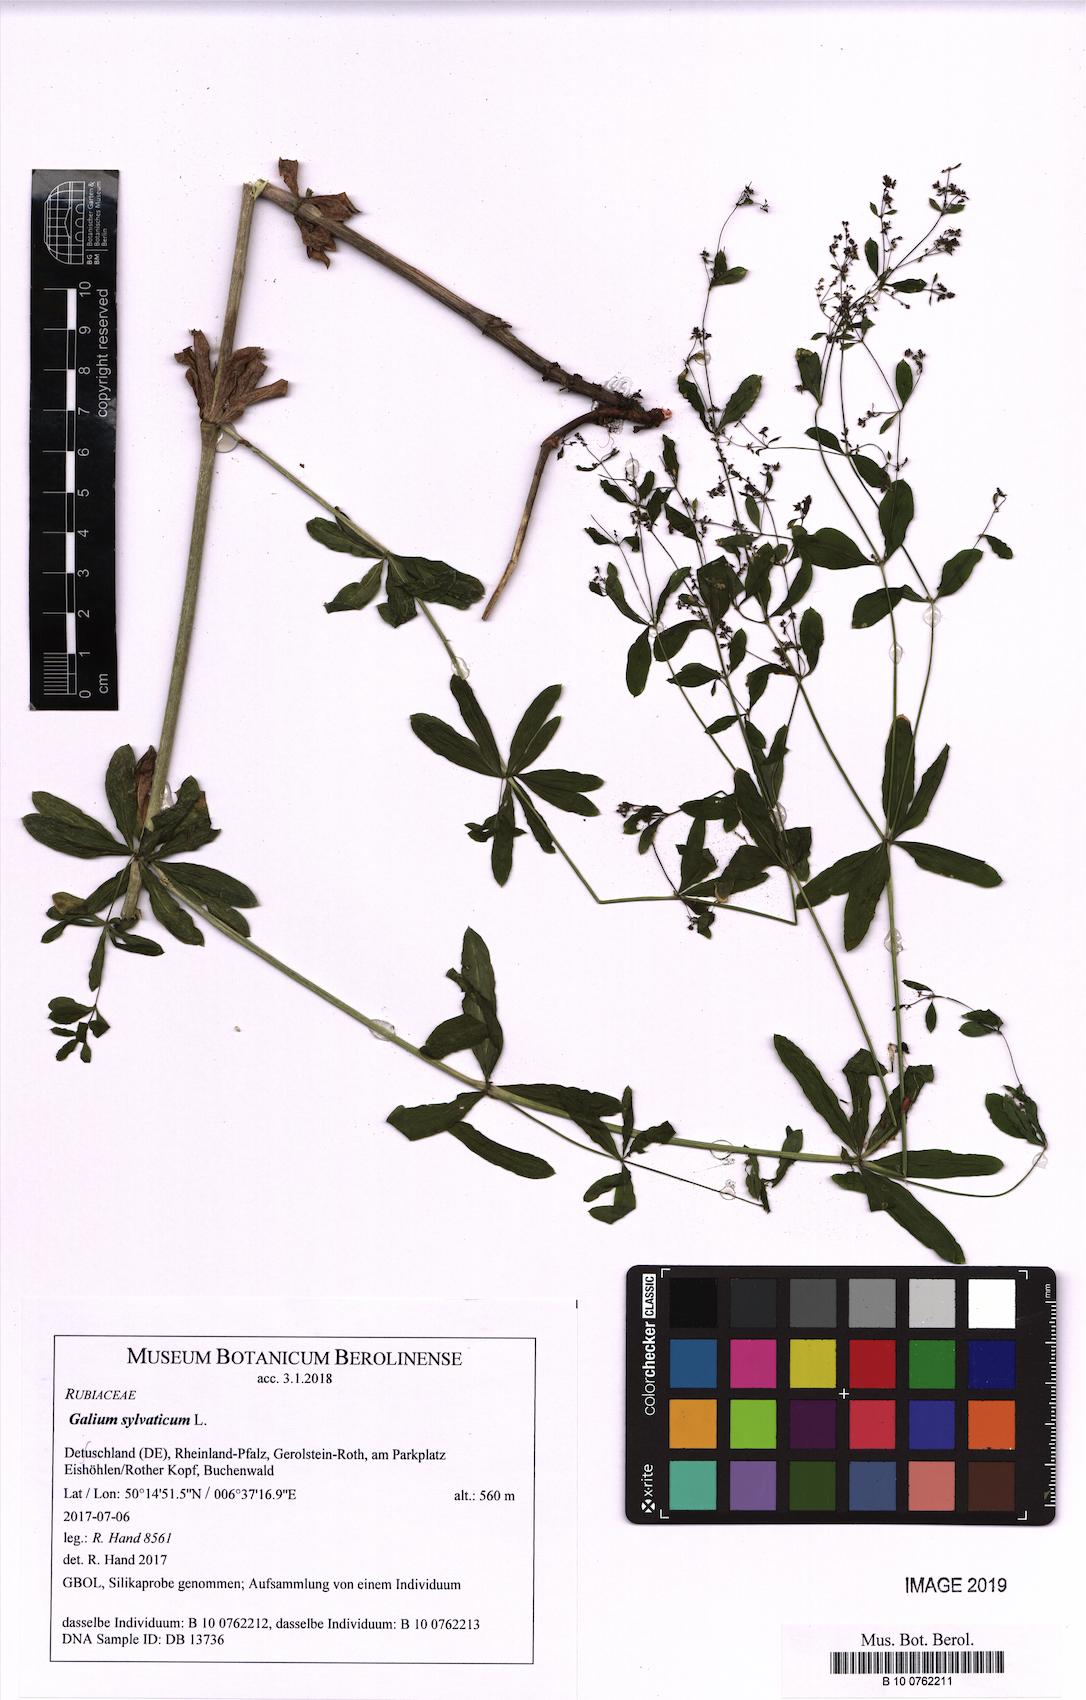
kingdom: Plantae
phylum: Tracheophyta
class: Magnoliopsida
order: Gentianales
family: Rubiaceae
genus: Galium
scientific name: Galium sylvaticum
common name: Wood bedstraw
